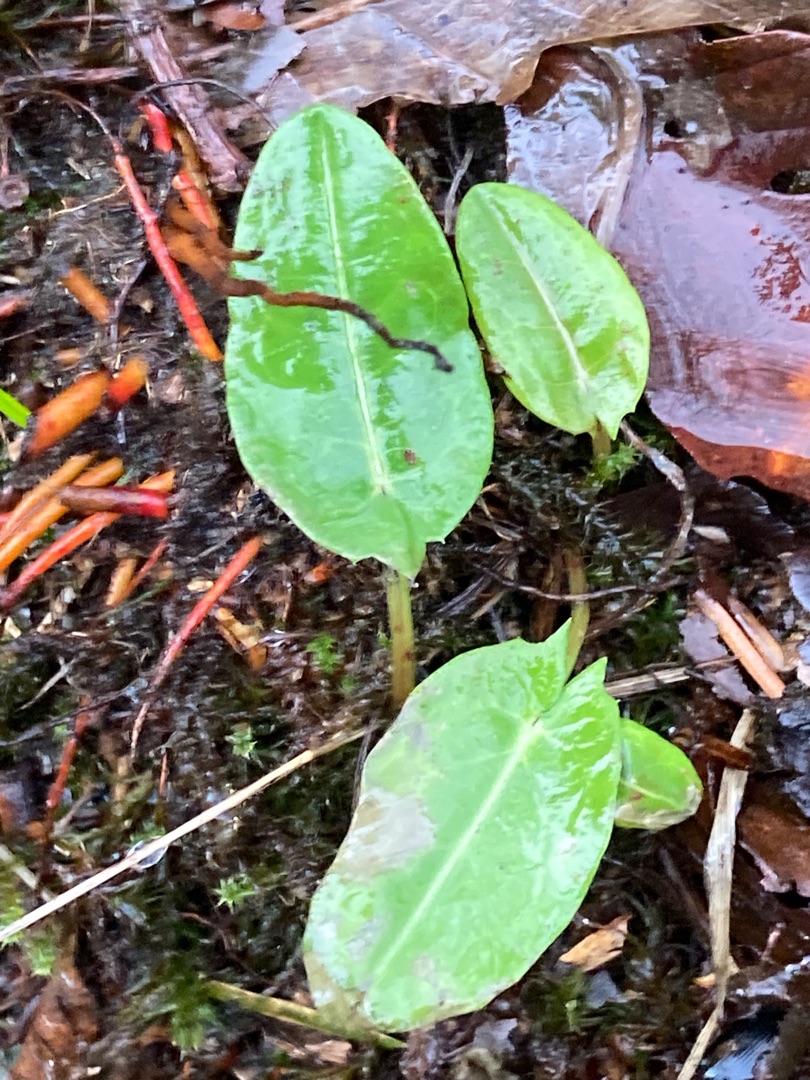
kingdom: Plantae
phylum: Tracheophyta
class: Magnoliopsida
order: Caryophyllales
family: Polygonaceae
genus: Rumex
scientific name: Rumex acetosa
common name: Almindelig syre
